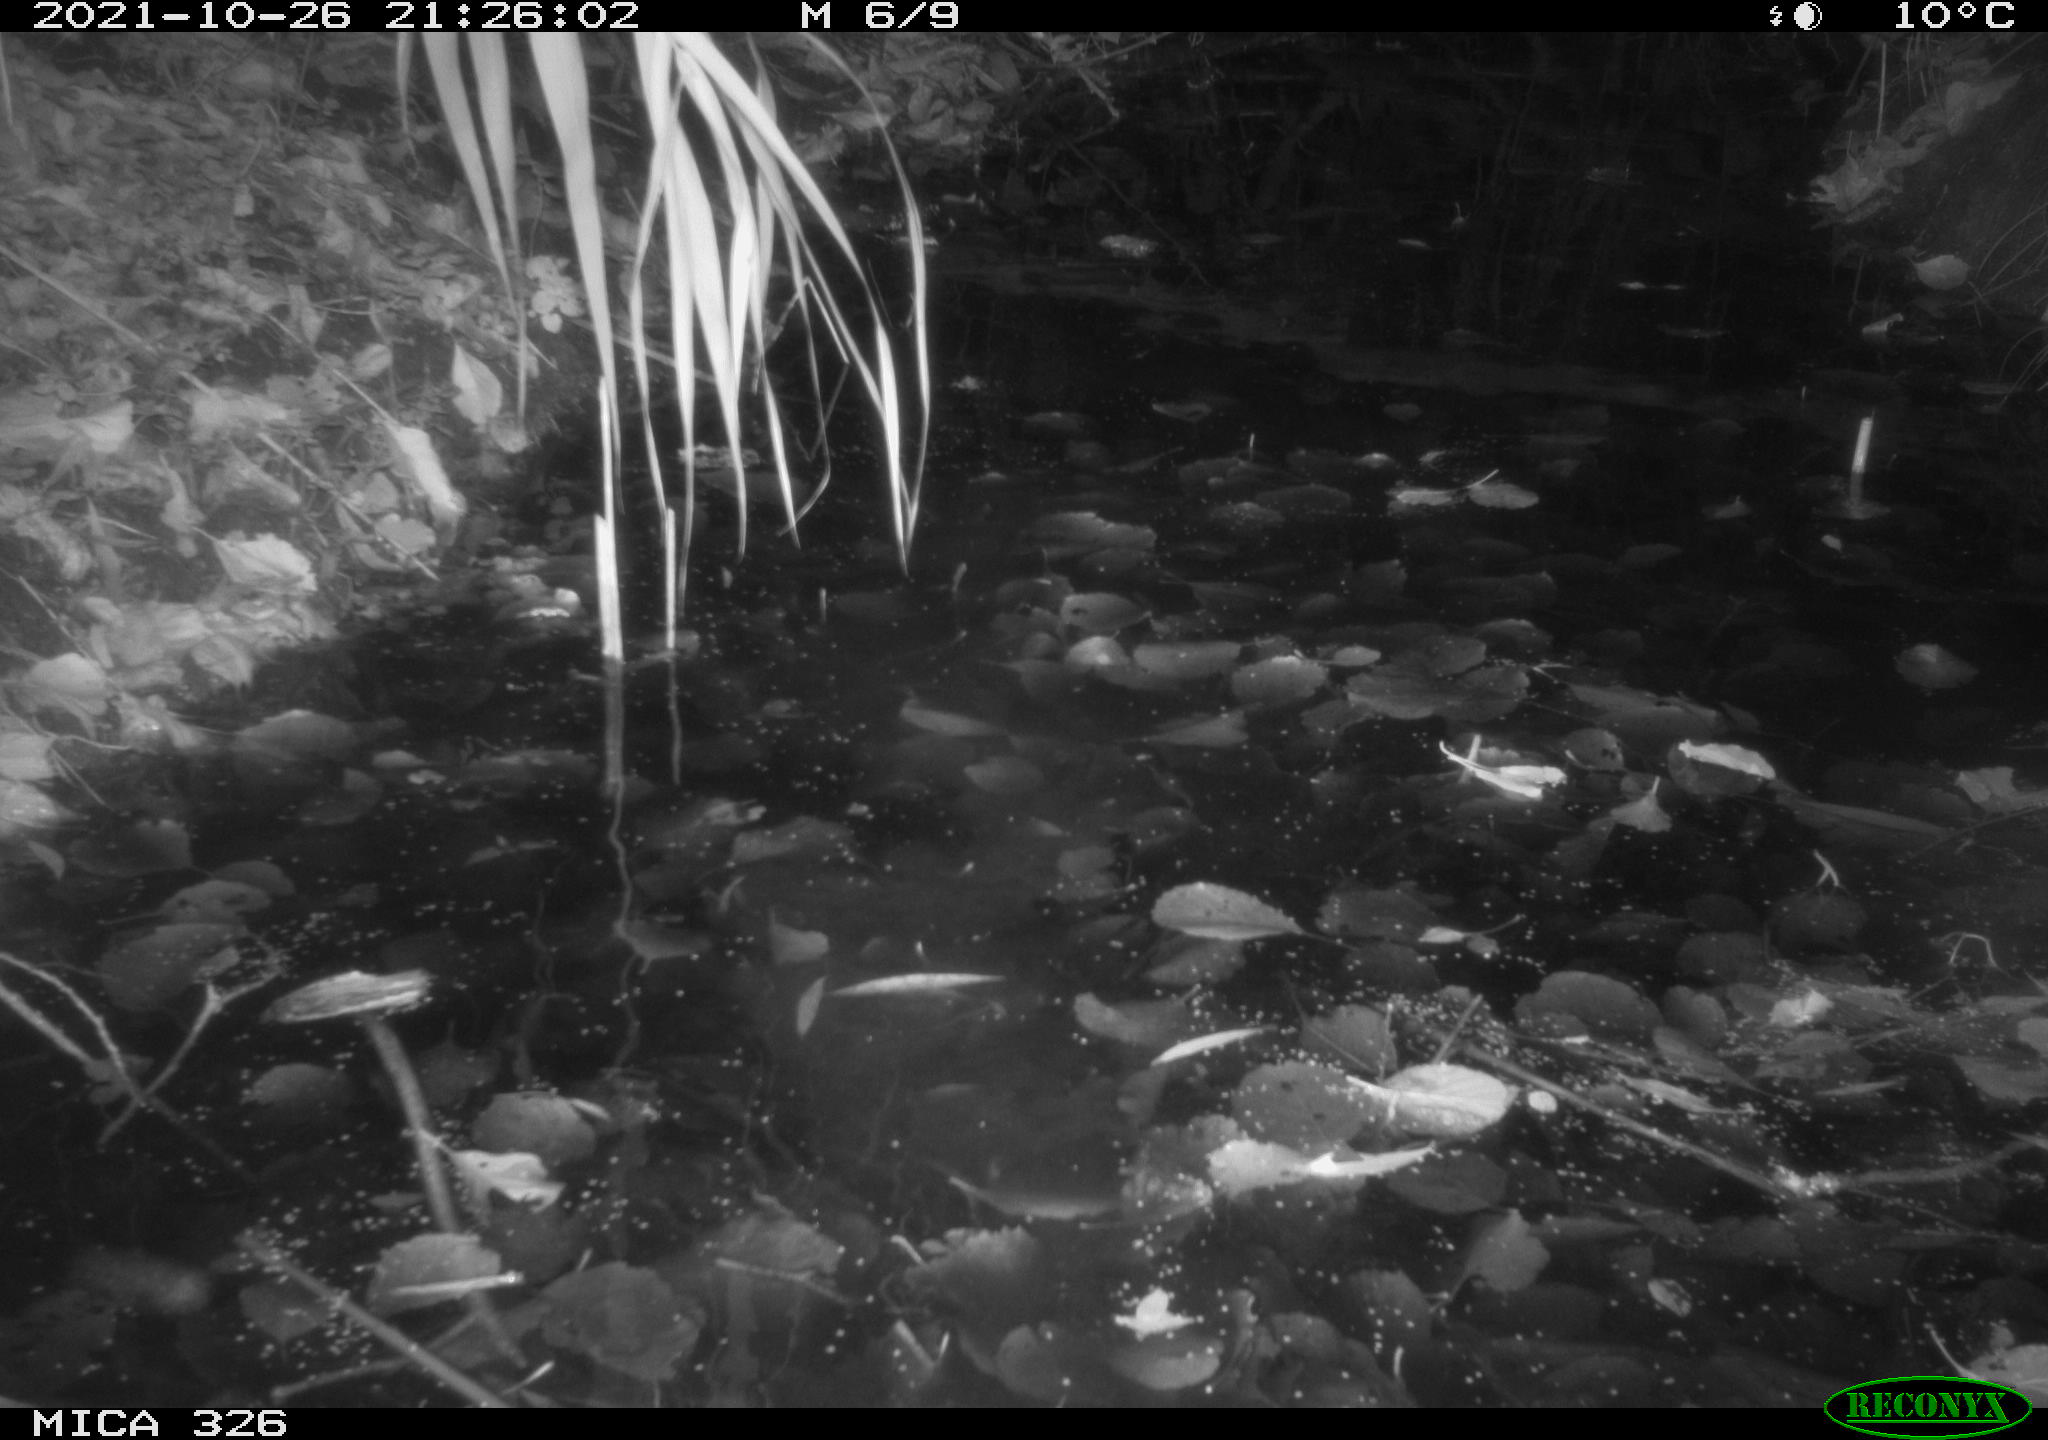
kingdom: Animalia
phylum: Chordata
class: Mammalia
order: Rodentia
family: Myocastoridae
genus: Myocastor
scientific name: Myocastor coypus
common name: Coypu
